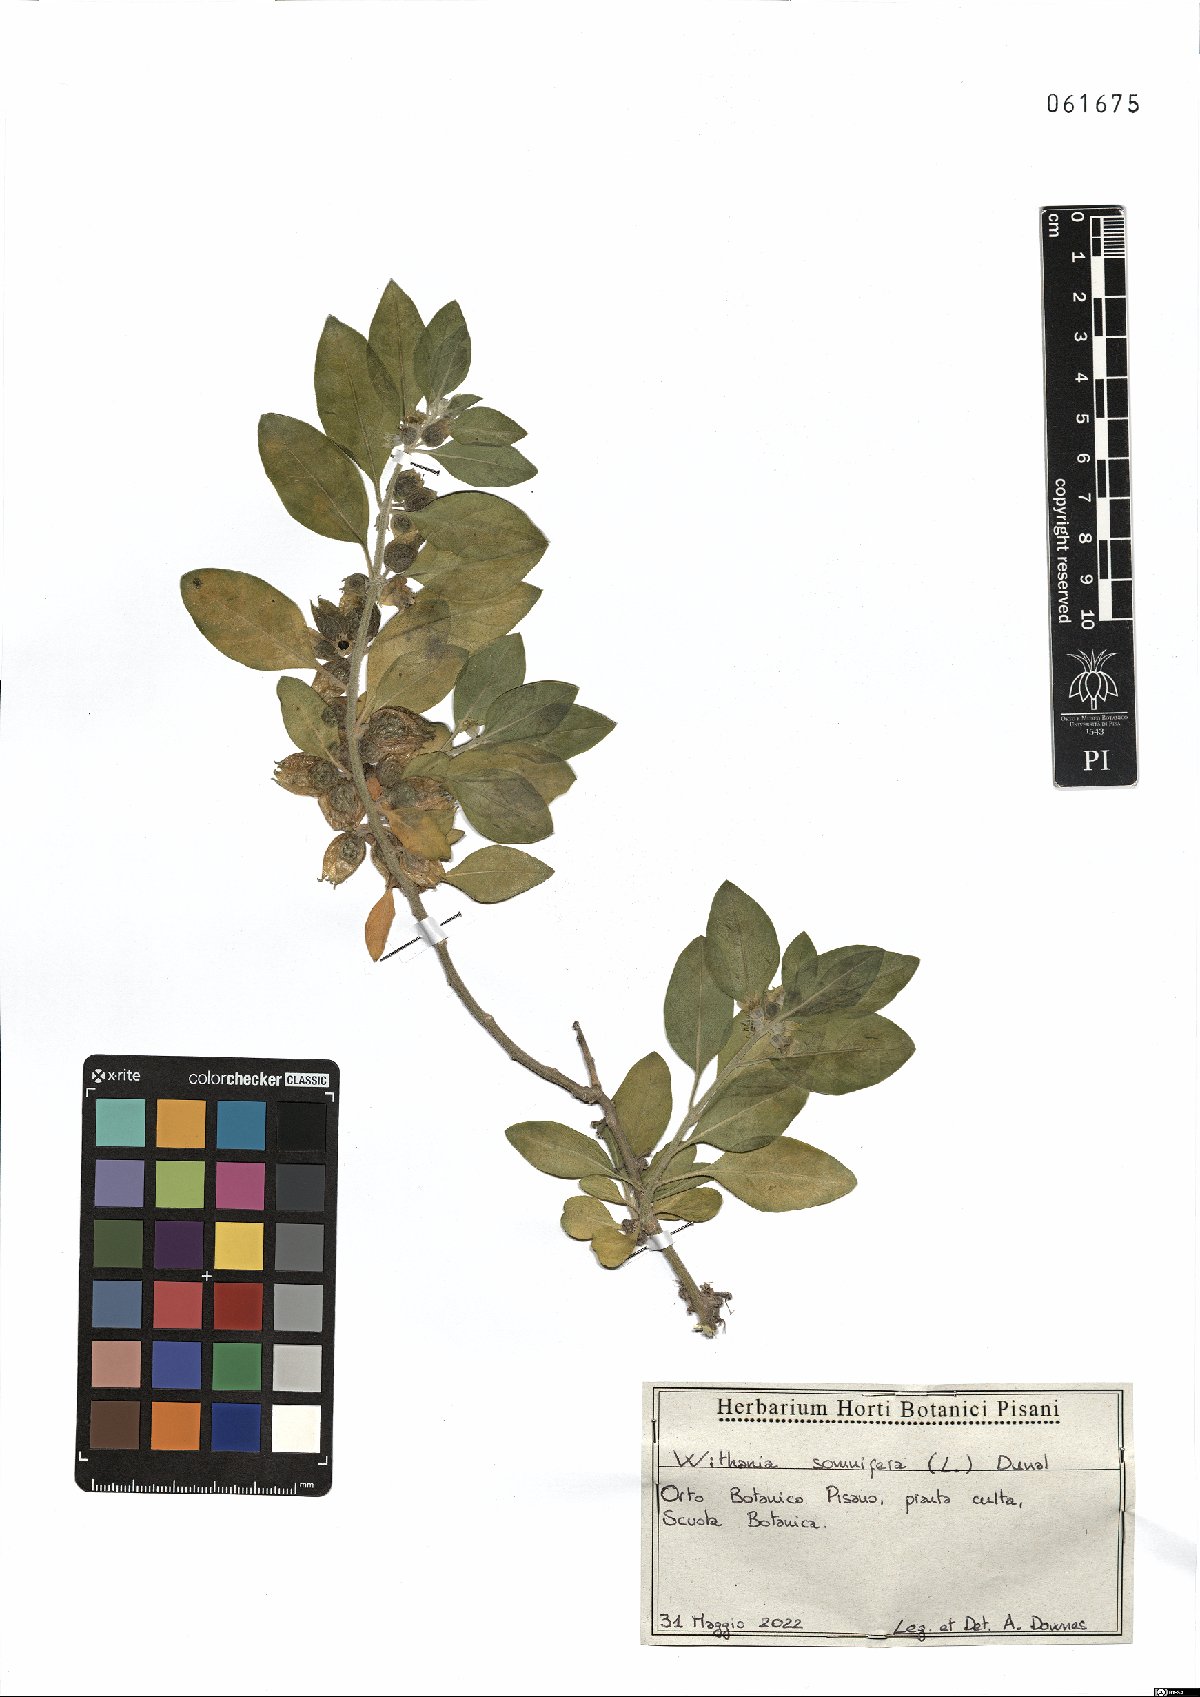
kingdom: Plantae
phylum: Tracheophyta
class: Magnoliopsida
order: Solanales
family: Solanaceae
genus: Withania
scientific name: Withania somnifera
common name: Winter-cherry
